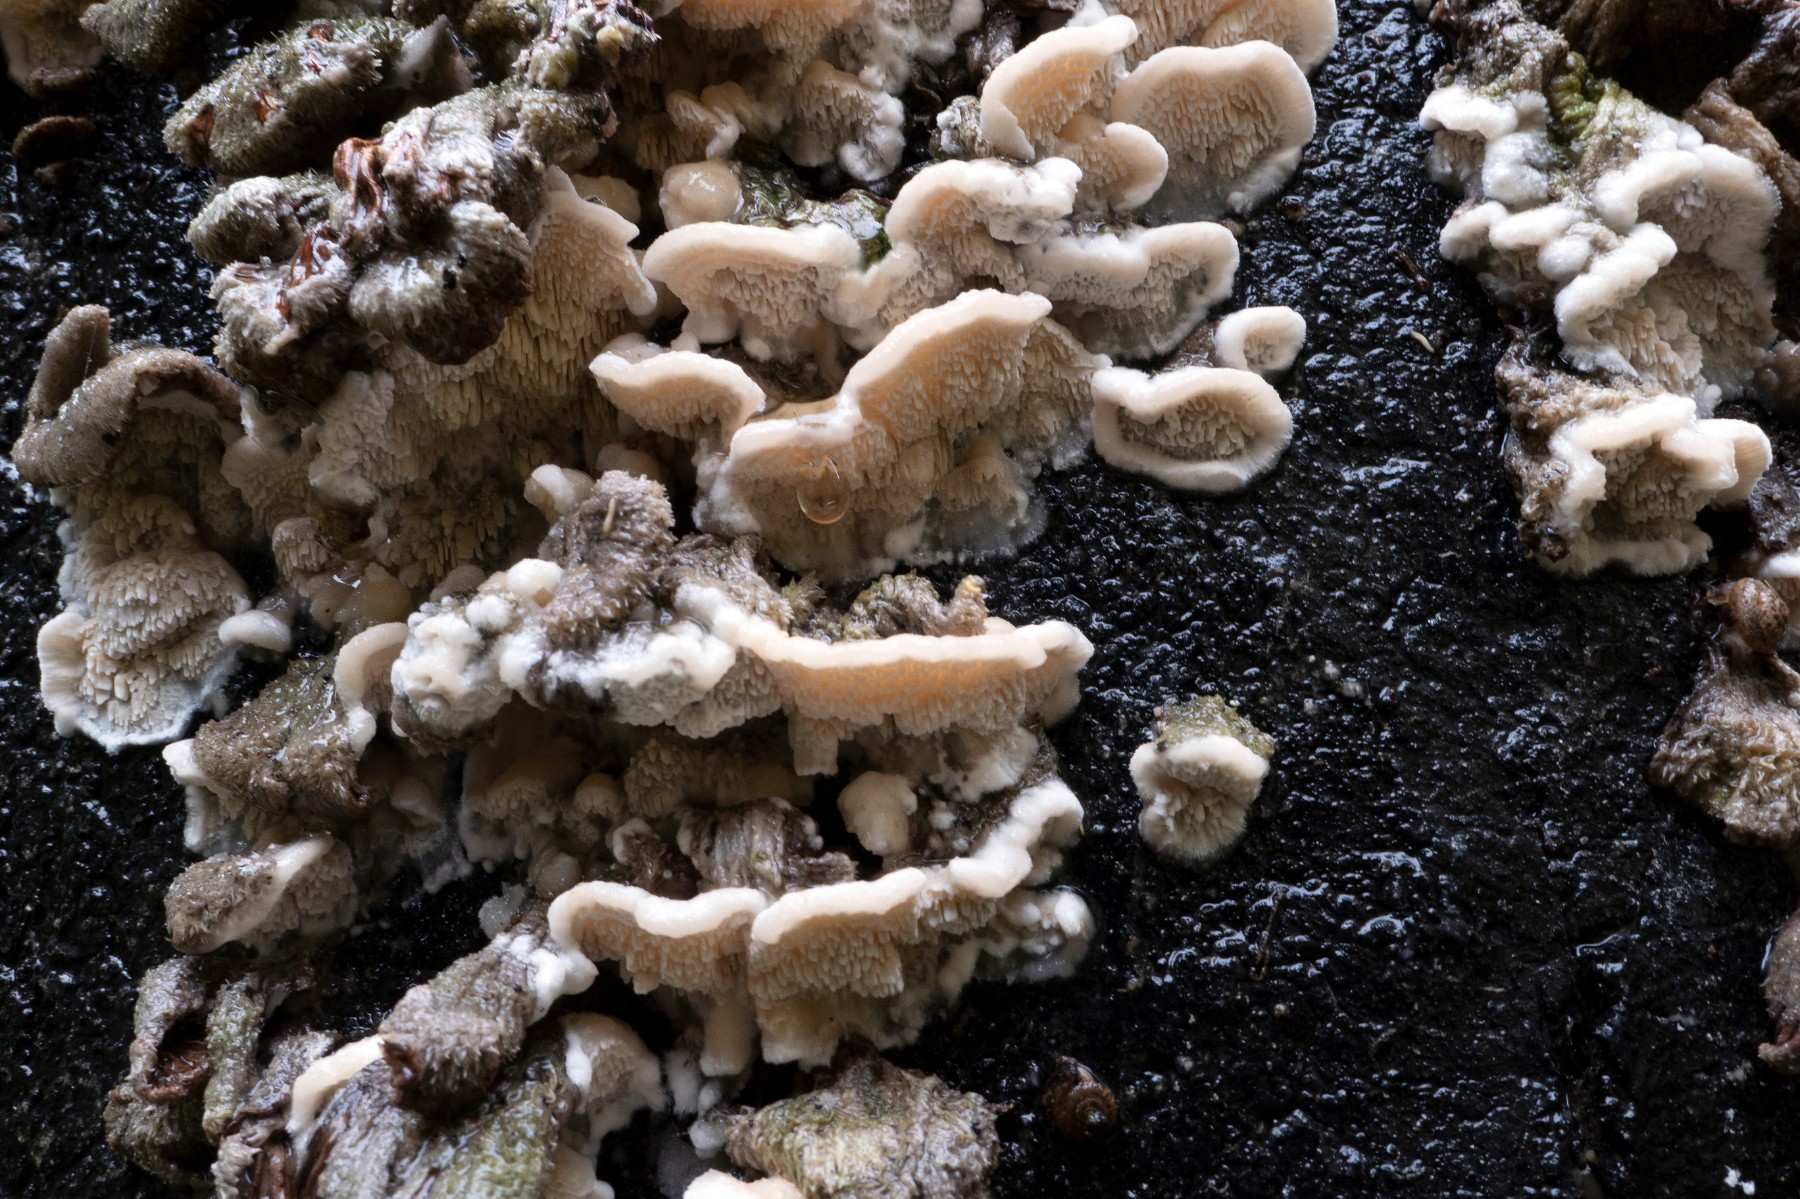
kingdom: Fungi
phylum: Basidiomycota
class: Agaricomycetes
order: Polyporales
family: Irpicaceae
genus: Irpex
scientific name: Irpex lacteus
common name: stor tandhat
